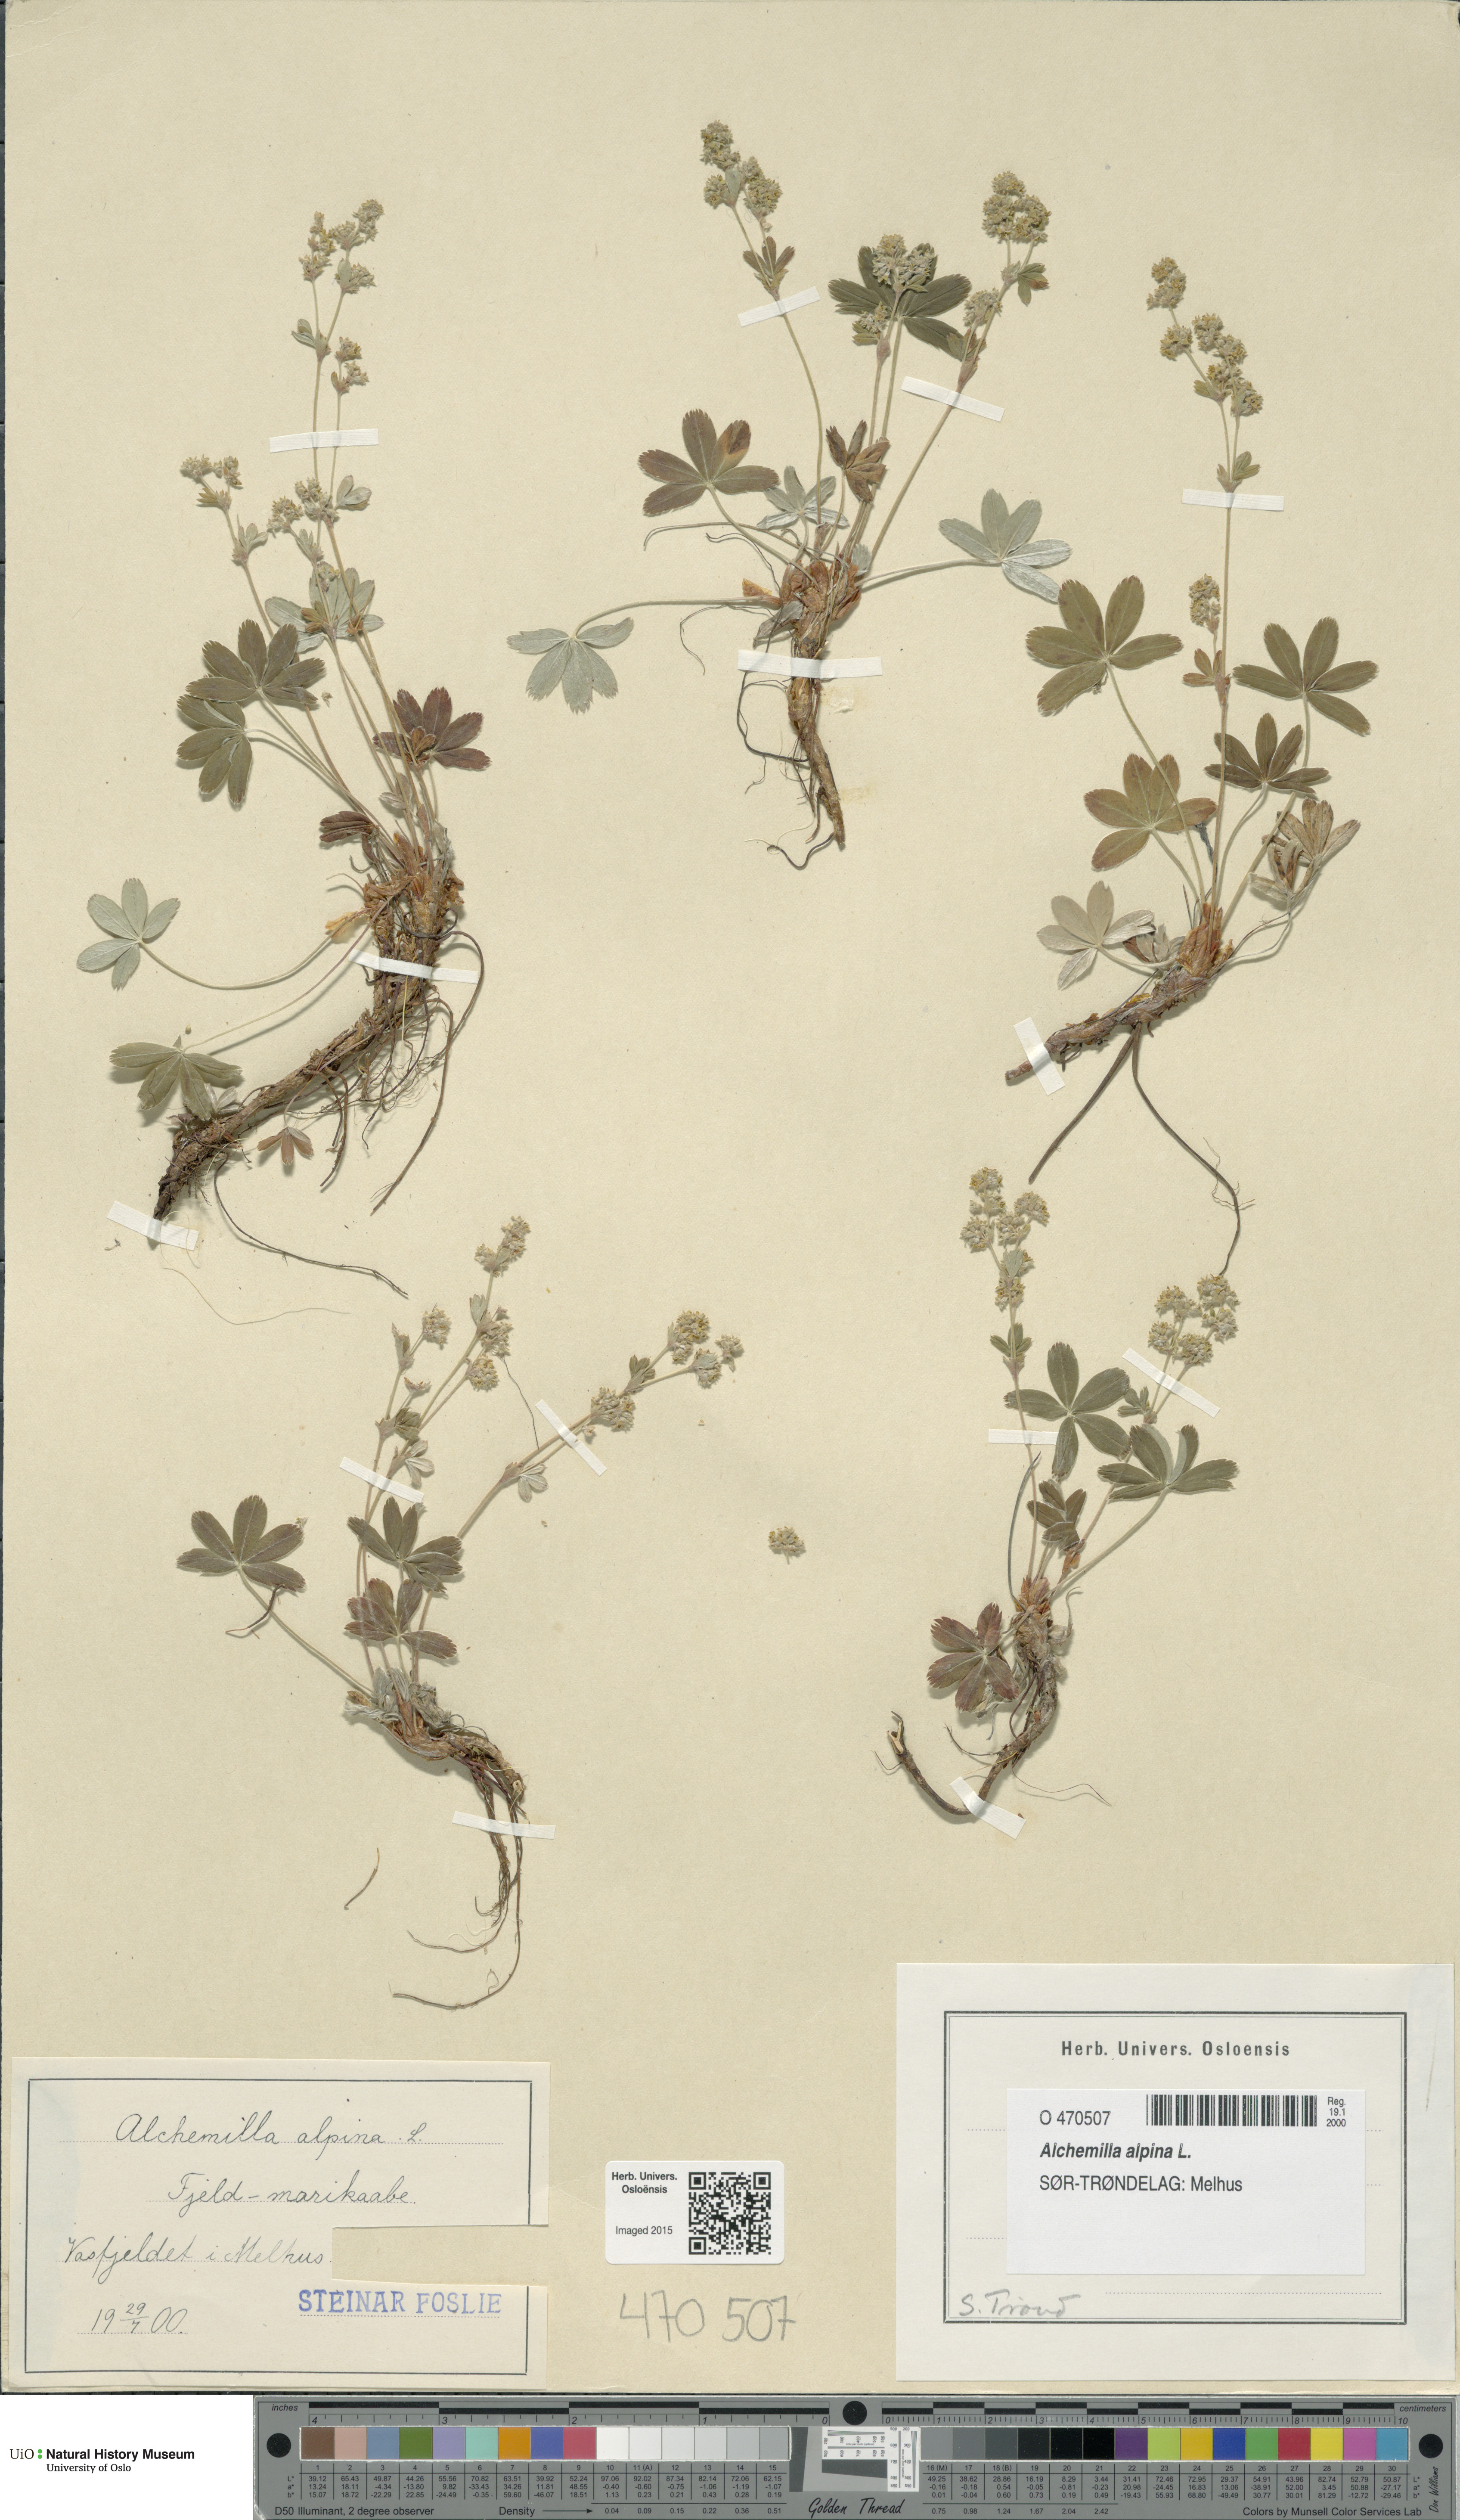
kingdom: Plantae
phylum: Tracheophyta
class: Magnoliopsida
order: Rosales
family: Rosaceae
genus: Alchemilla
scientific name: Alchemilla alpina
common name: Alpine lady's-mantle
